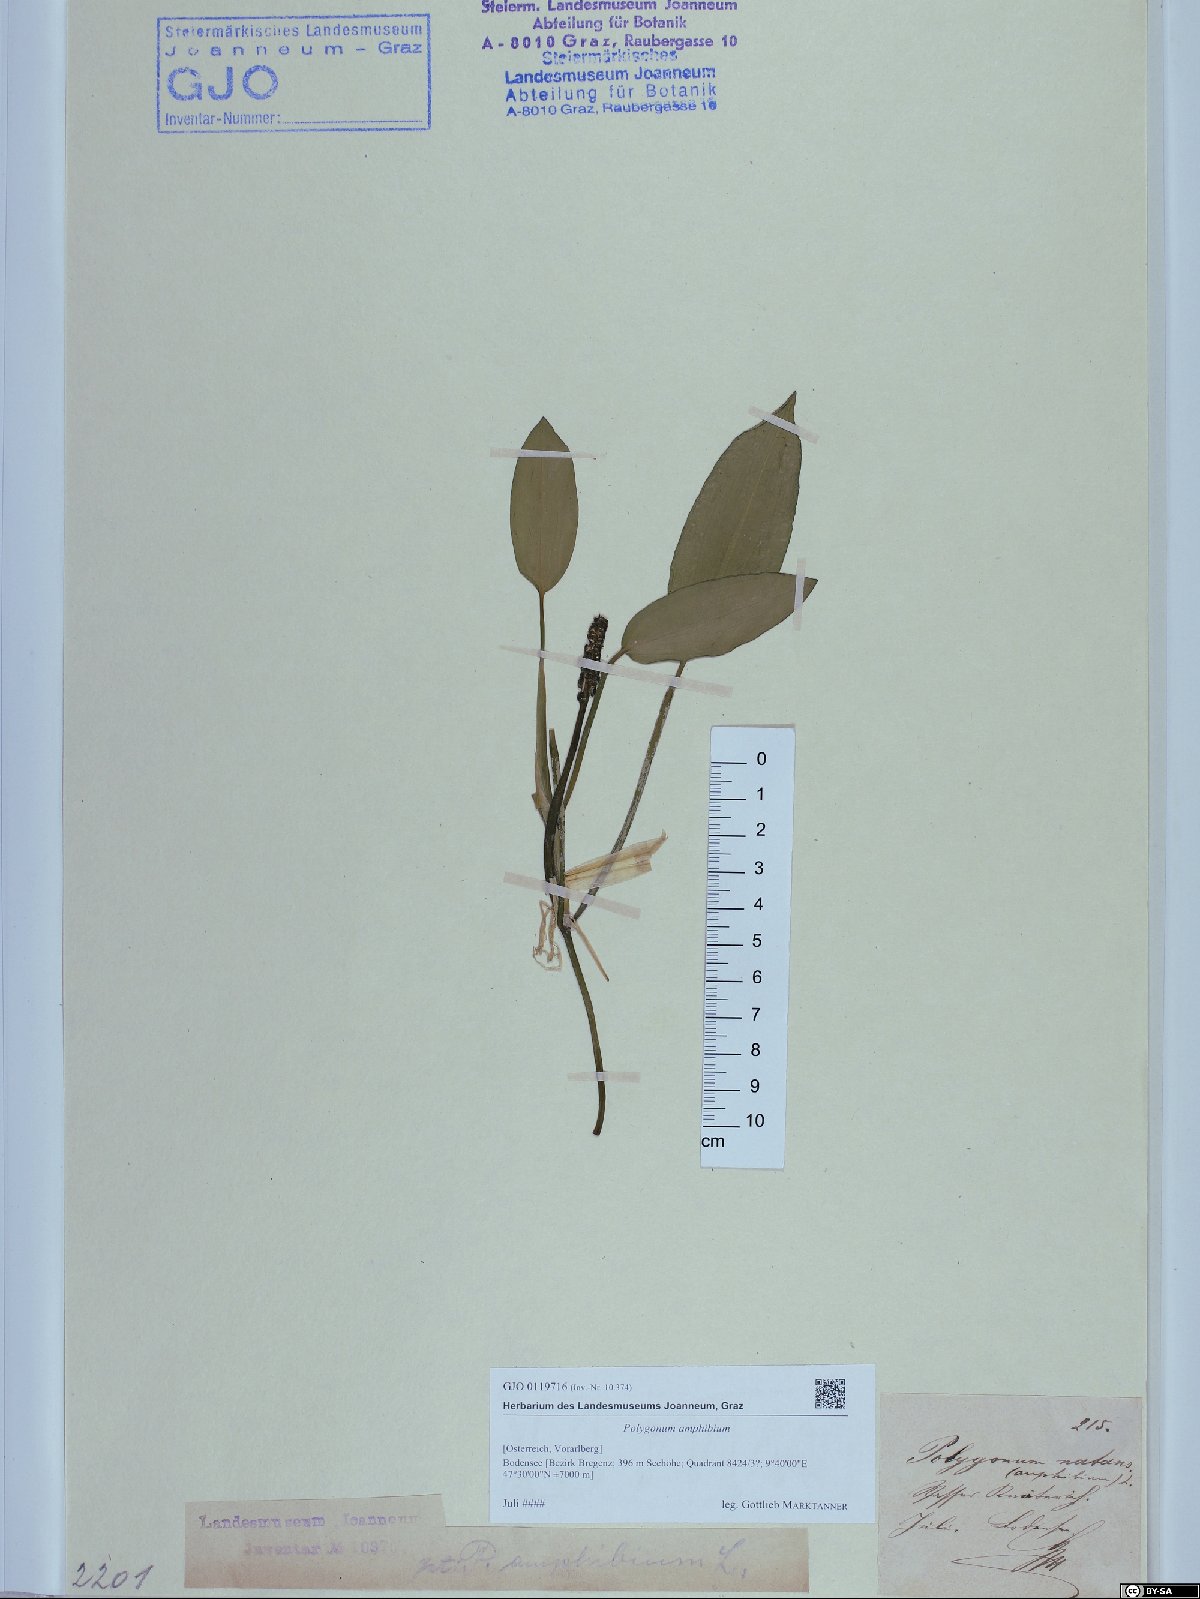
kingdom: Plantae
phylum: Tracheophyta
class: Magnoliopsida
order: Caryophyllales
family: Polygonaceae
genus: Persicaria
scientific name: Persicaria amphibia
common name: Amphibious bistort
